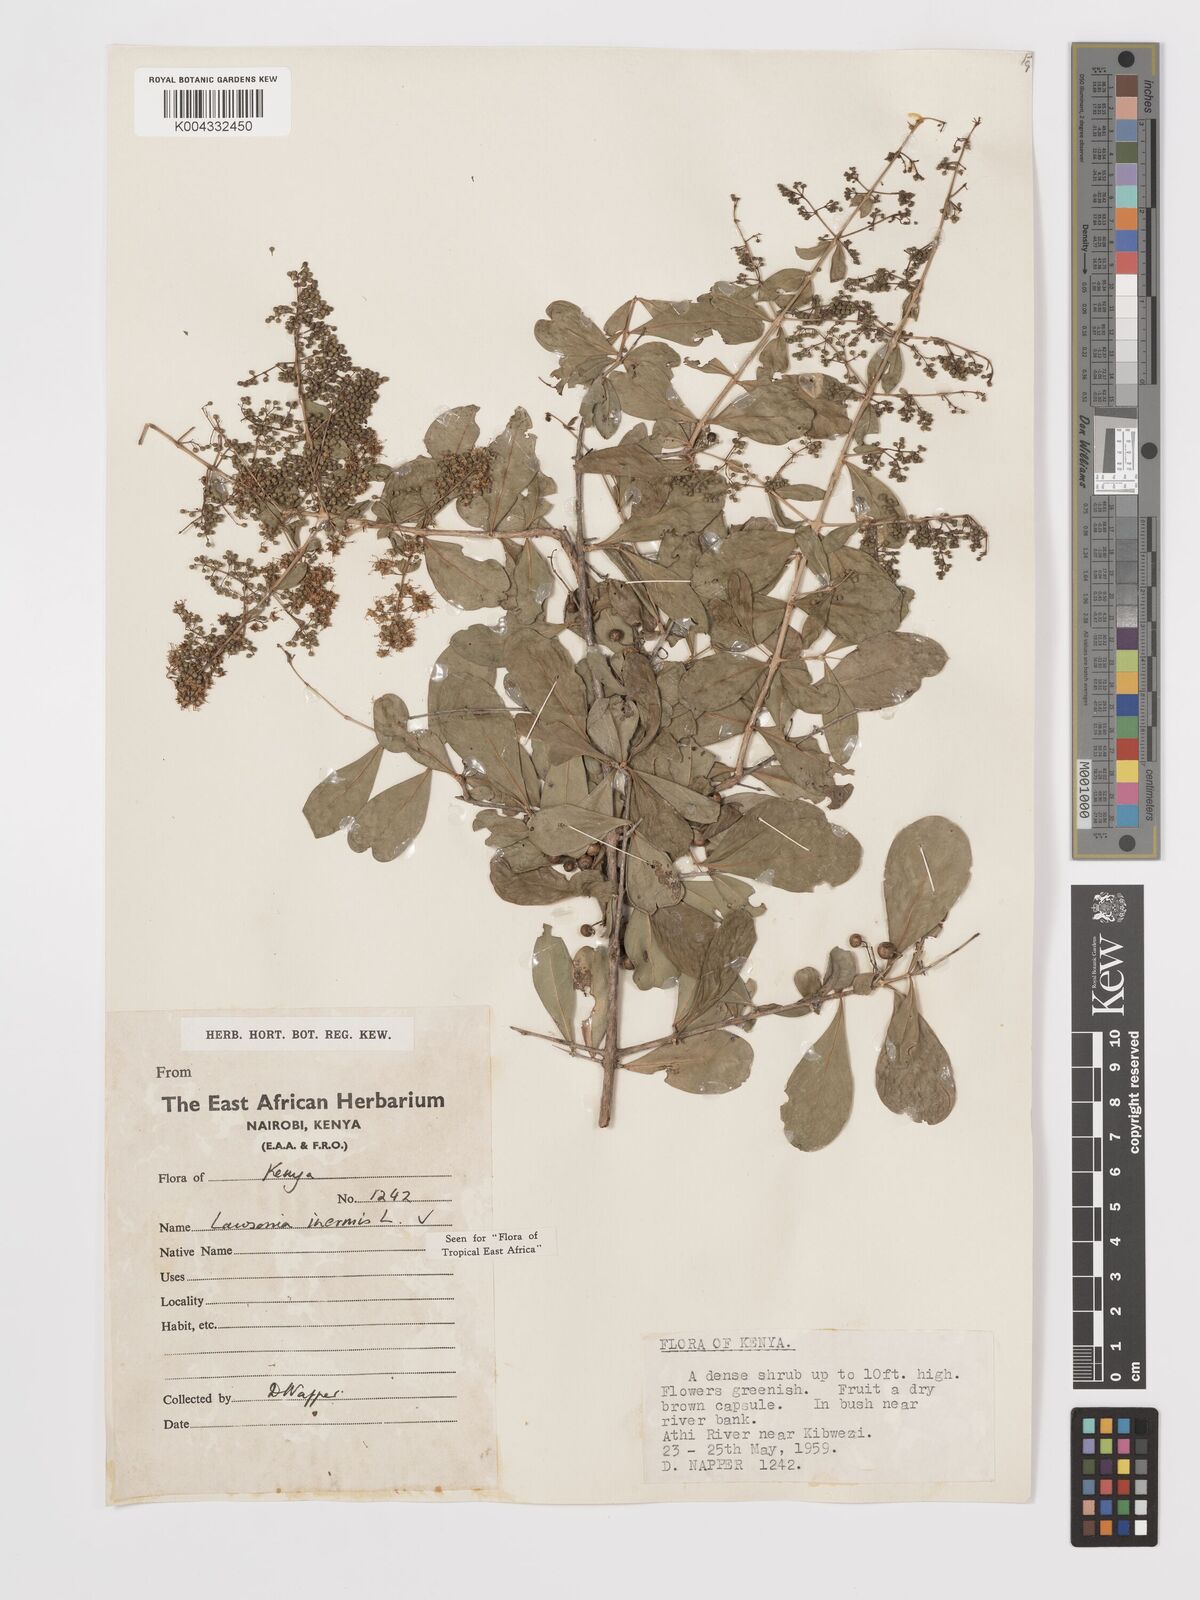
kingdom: Plantae
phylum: Tracheophyta
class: Magnoliopsida
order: Myrtales
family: Lythraceae
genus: Lawsonia
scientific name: Lawsonia inermis
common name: Henna
